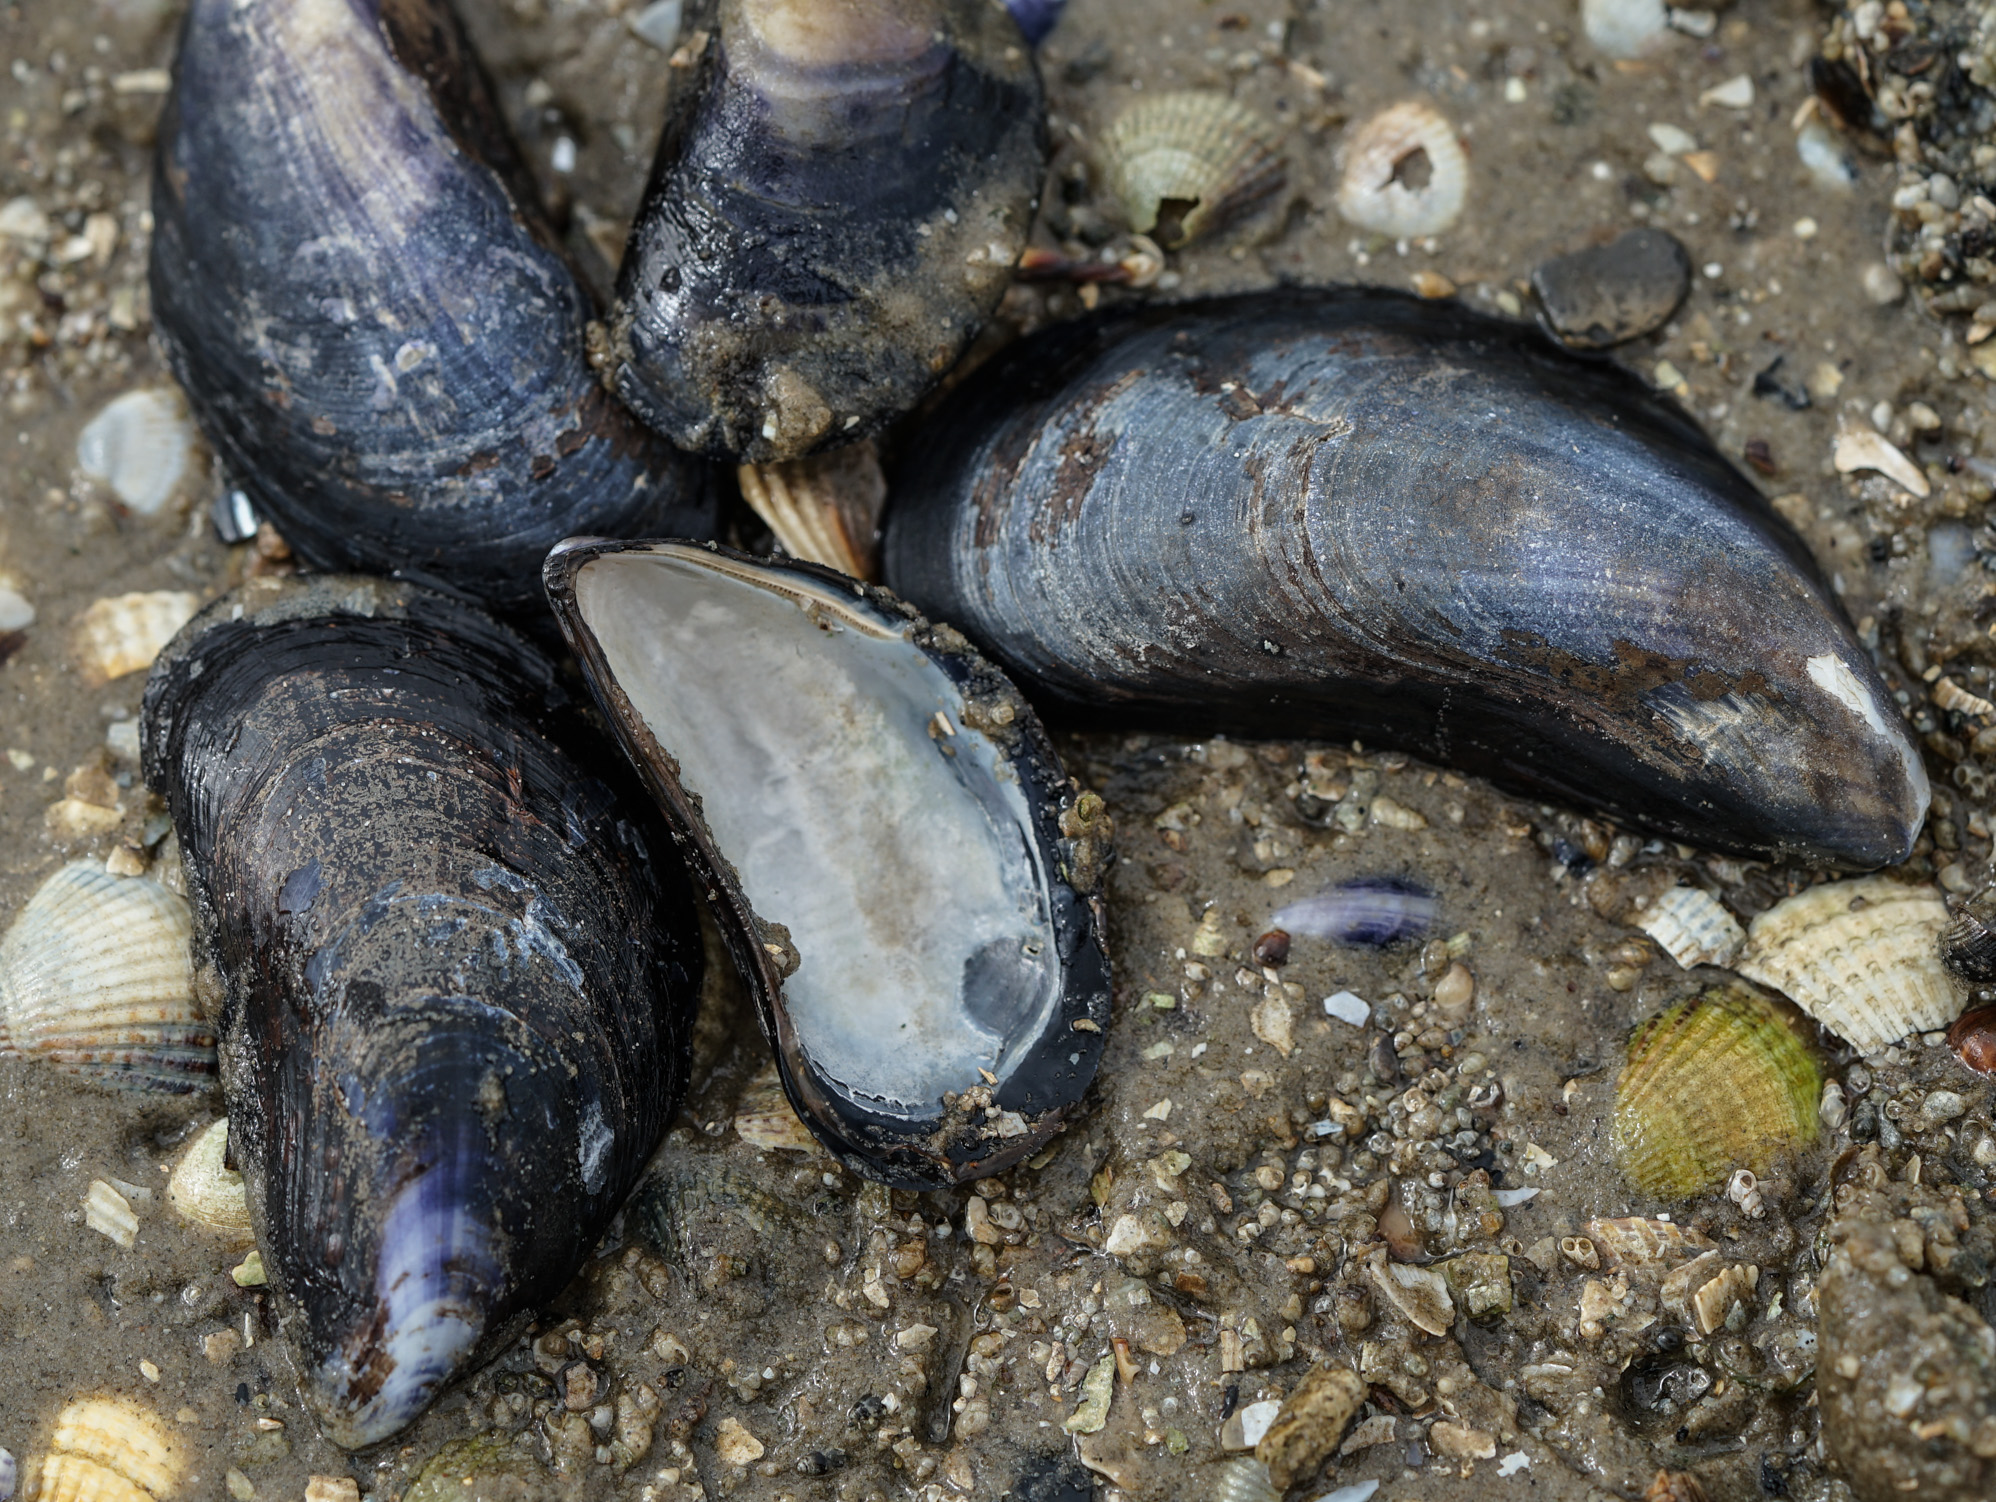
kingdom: Animalia
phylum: Mollusca
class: Bivalvia
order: Mytilida
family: Mytilidae
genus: Mytilus
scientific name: Mytilus edulis
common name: Blue mussel
